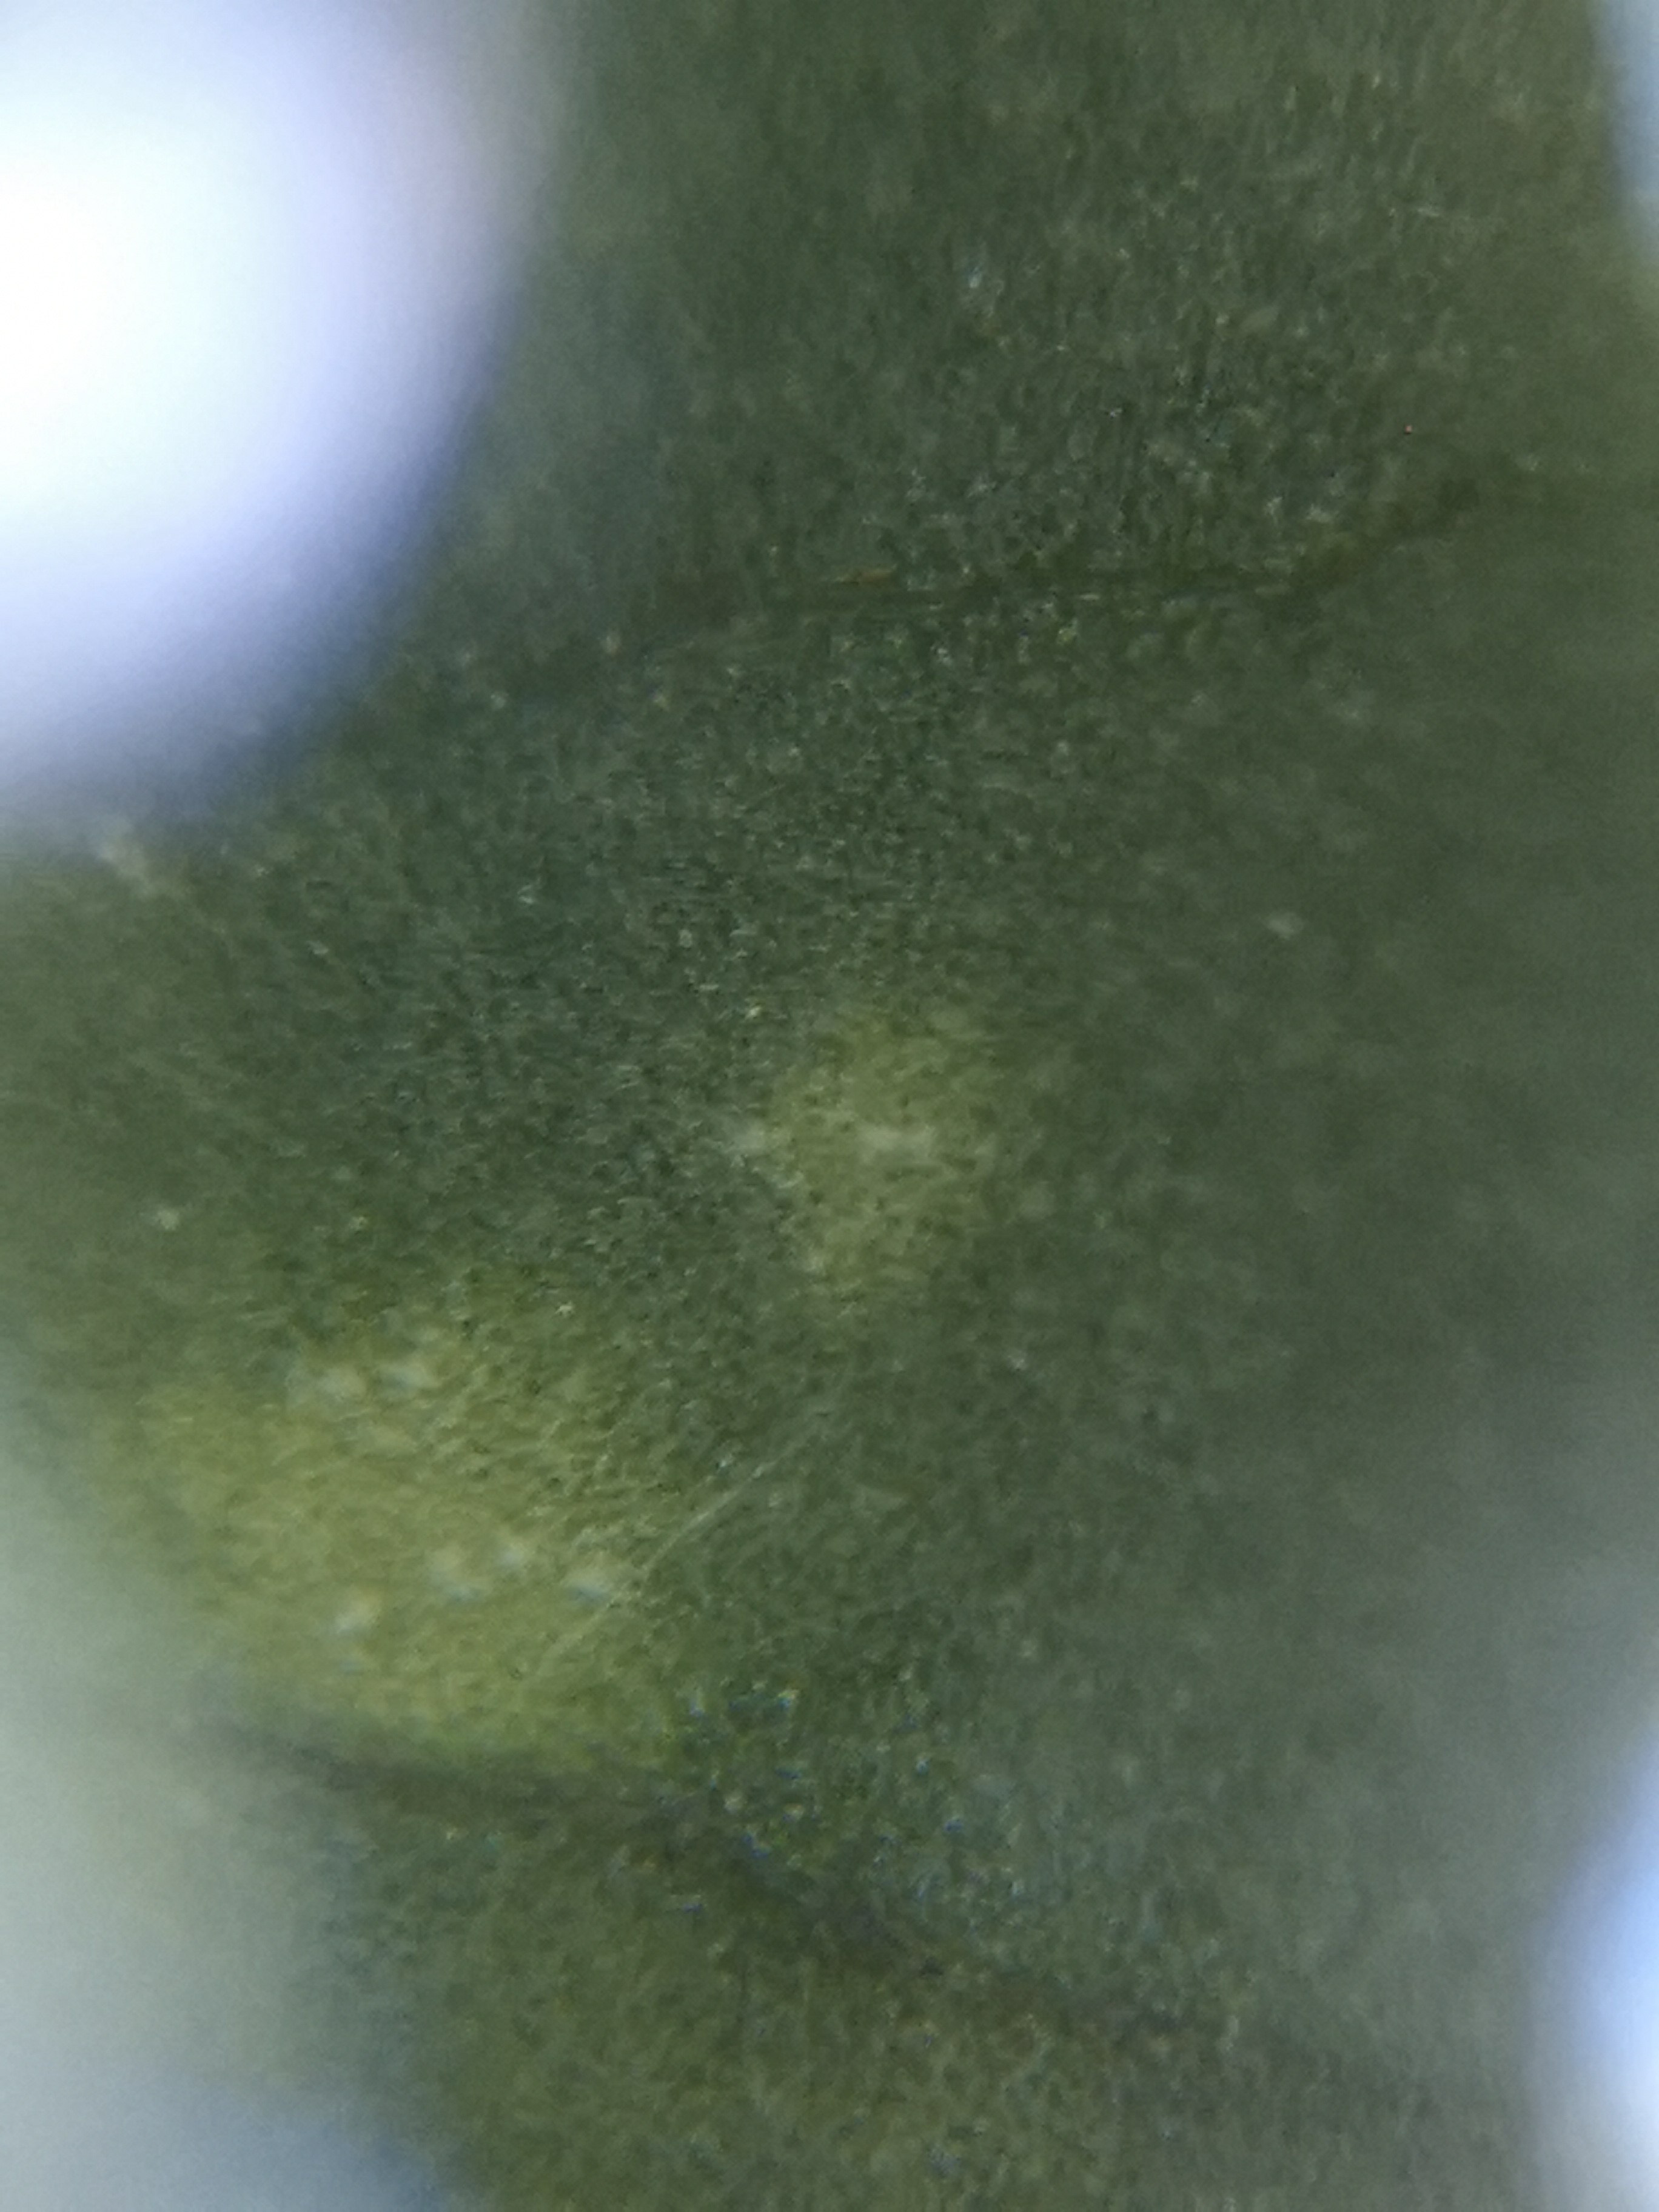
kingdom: Fungi
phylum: Basidiomycota
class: Exobasidiomycetes
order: Entylomatales
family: Entylomataceae
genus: Entyloma
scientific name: Entyloma ficariae
